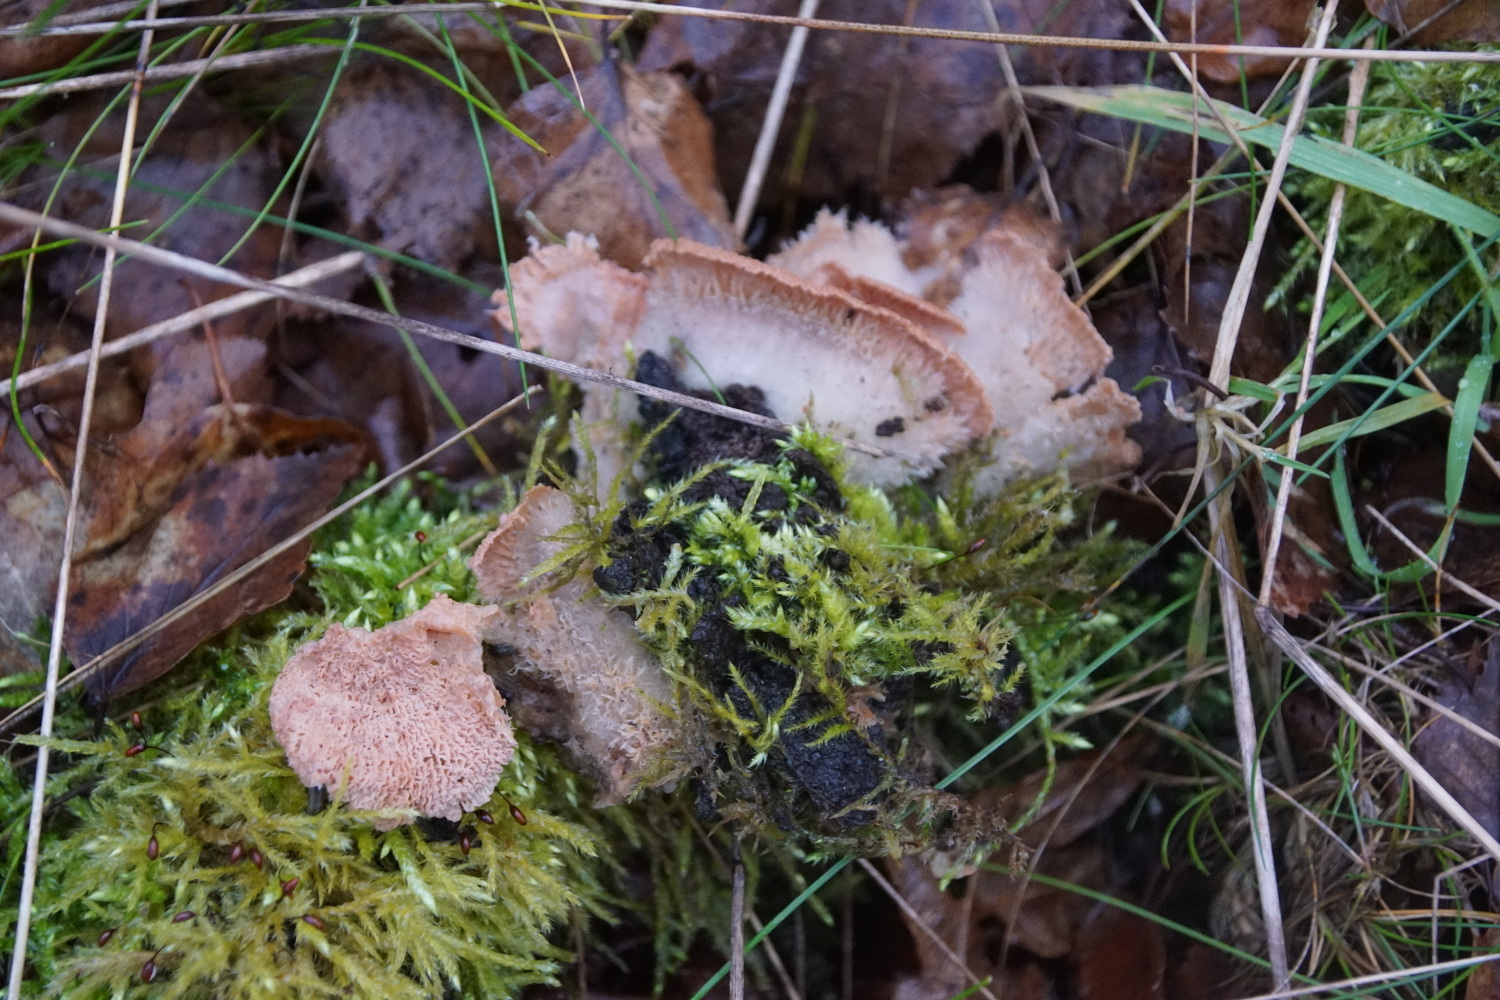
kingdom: Fungi
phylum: Basidiomycota
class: Agaricomycetes
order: Polyporales
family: Meruliaceae
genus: Phlebia
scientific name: Phlebia tremellosa
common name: bævrende åresvamp
